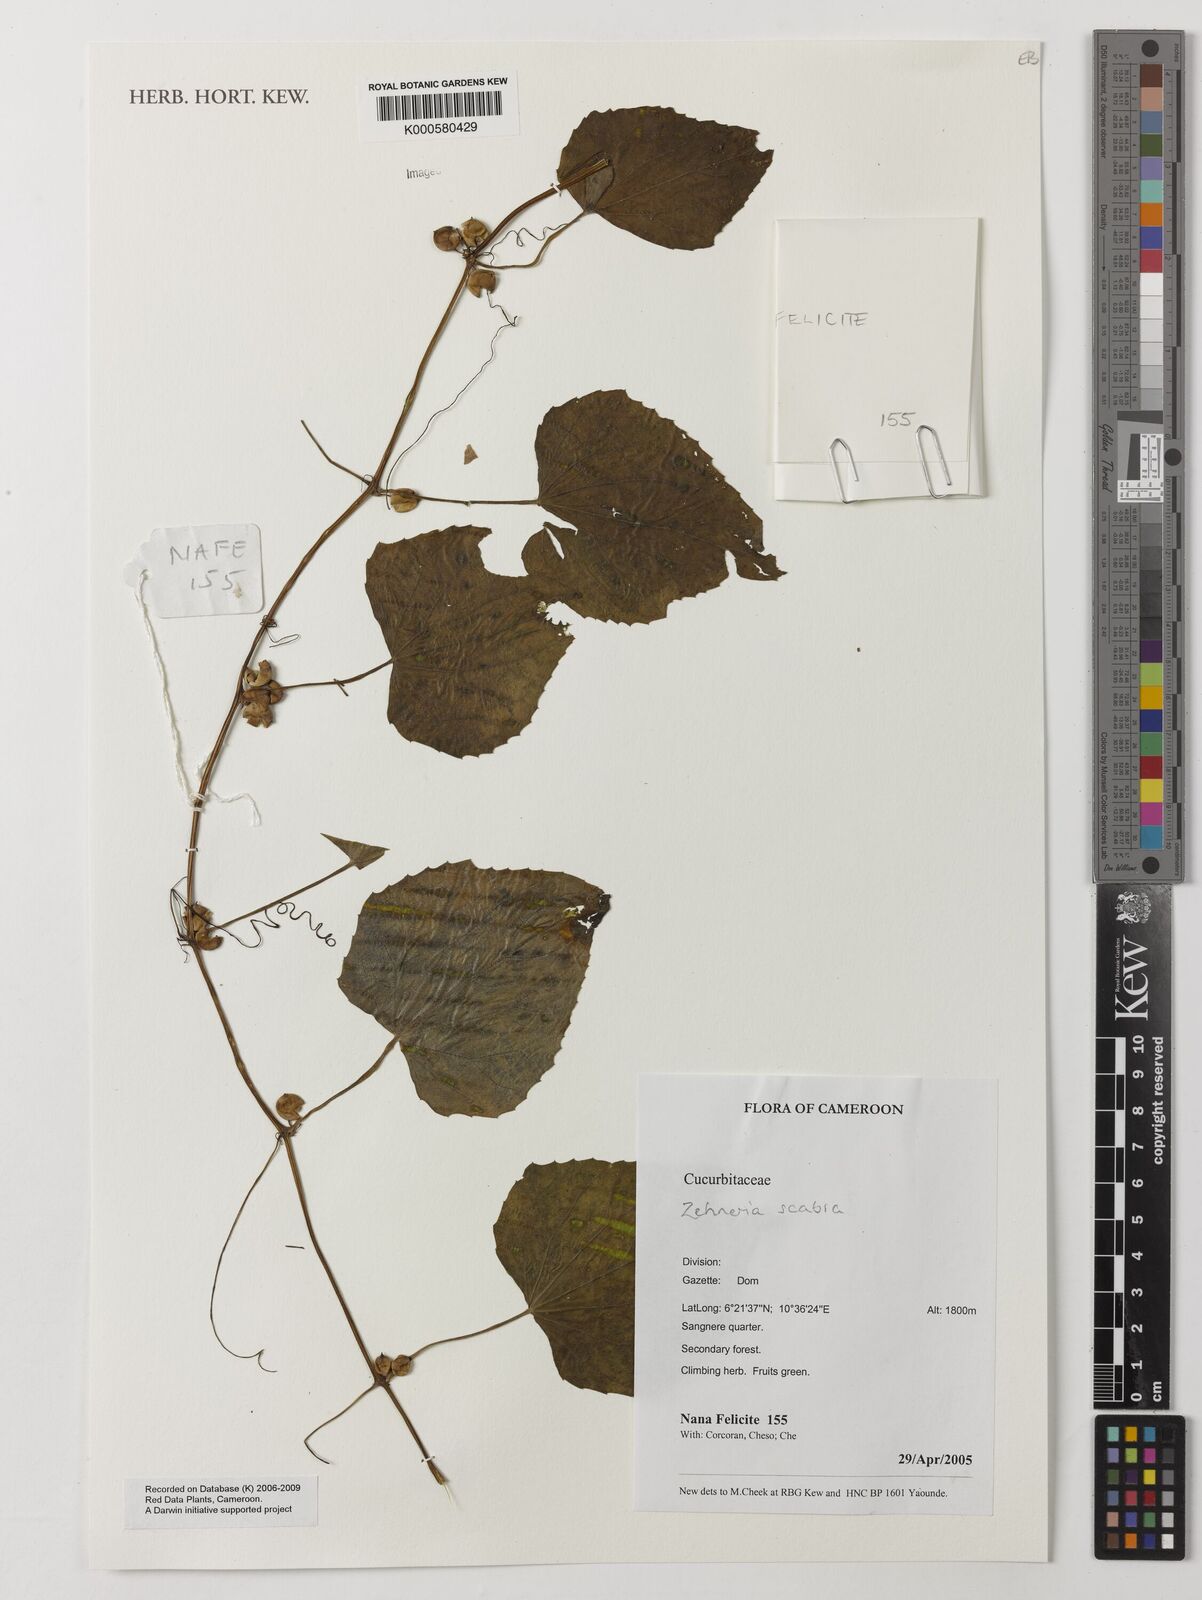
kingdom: Plantae
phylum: Tracheophyta
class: Magnoliopsida
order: Cucurbitales
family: Cucurbitaceae
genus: Zehneria
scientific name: Zehneria scabra
